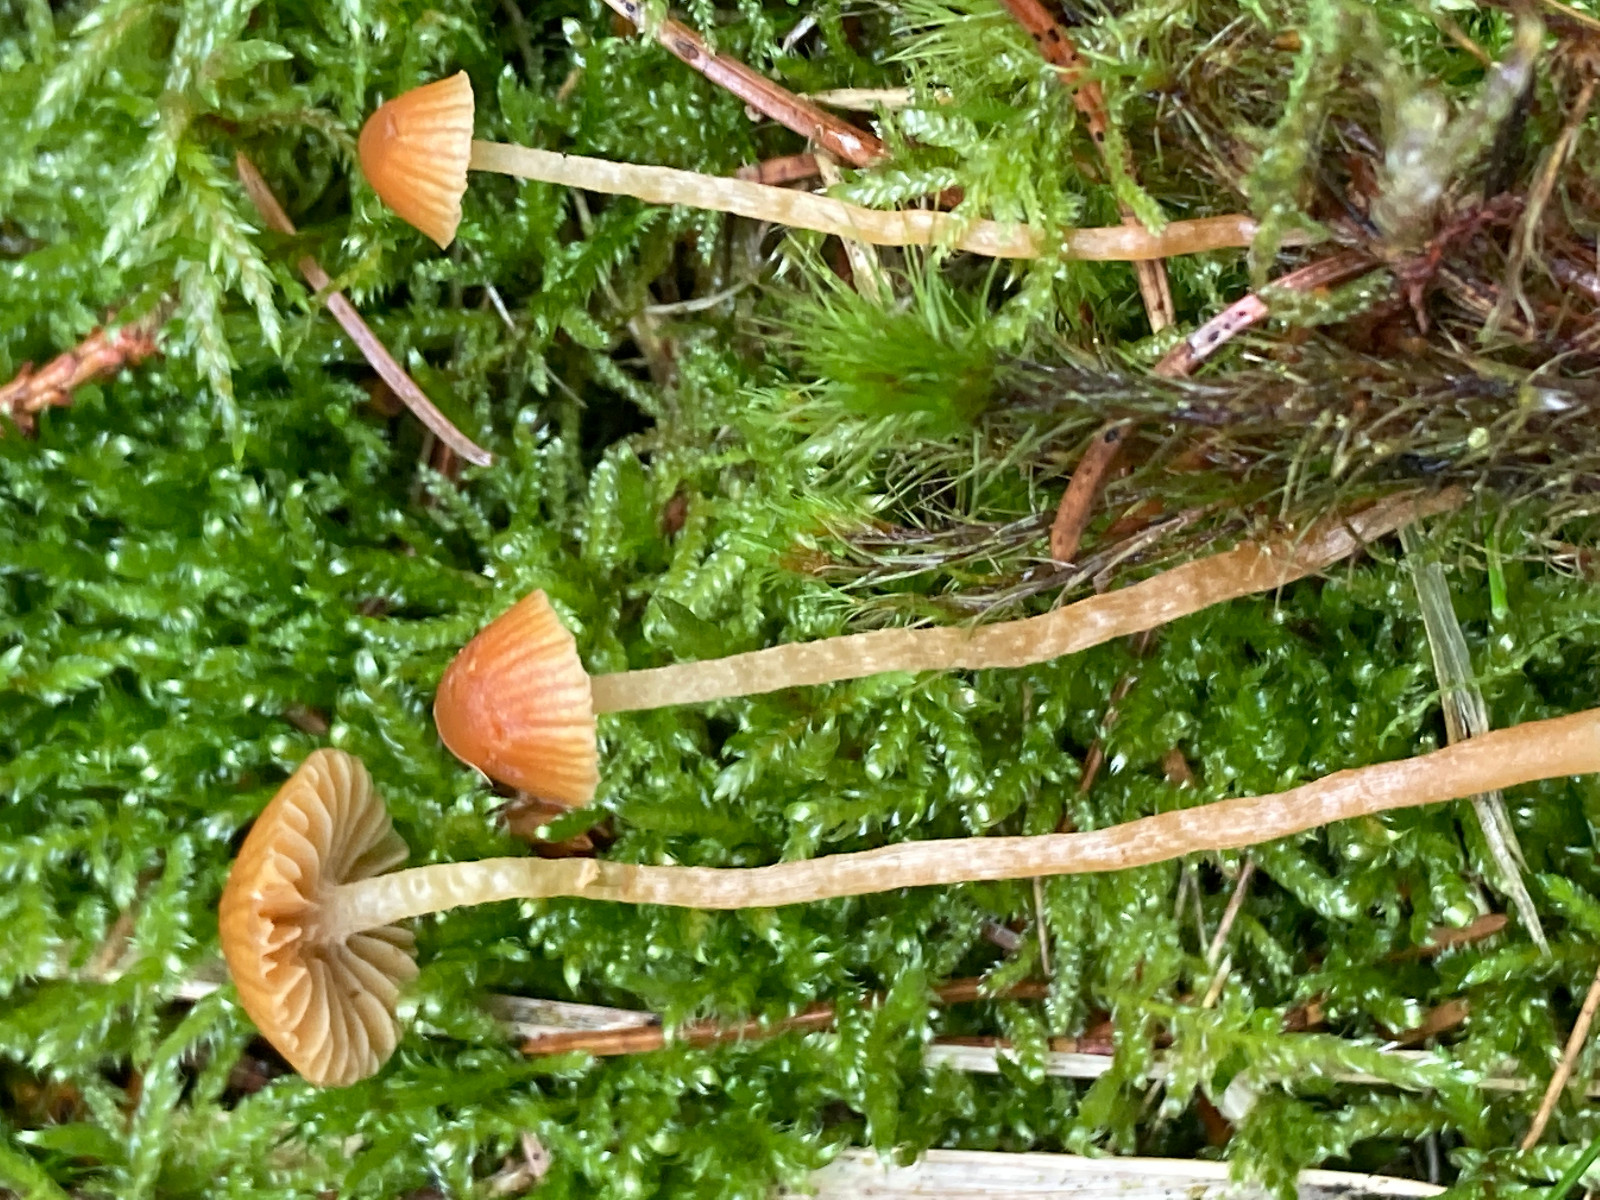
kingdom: Fungi
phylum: Basidiomycota
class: Agaricomycetes
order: Agaricales
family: Hymenogastraceae
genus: Galerina
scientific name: Galerina
